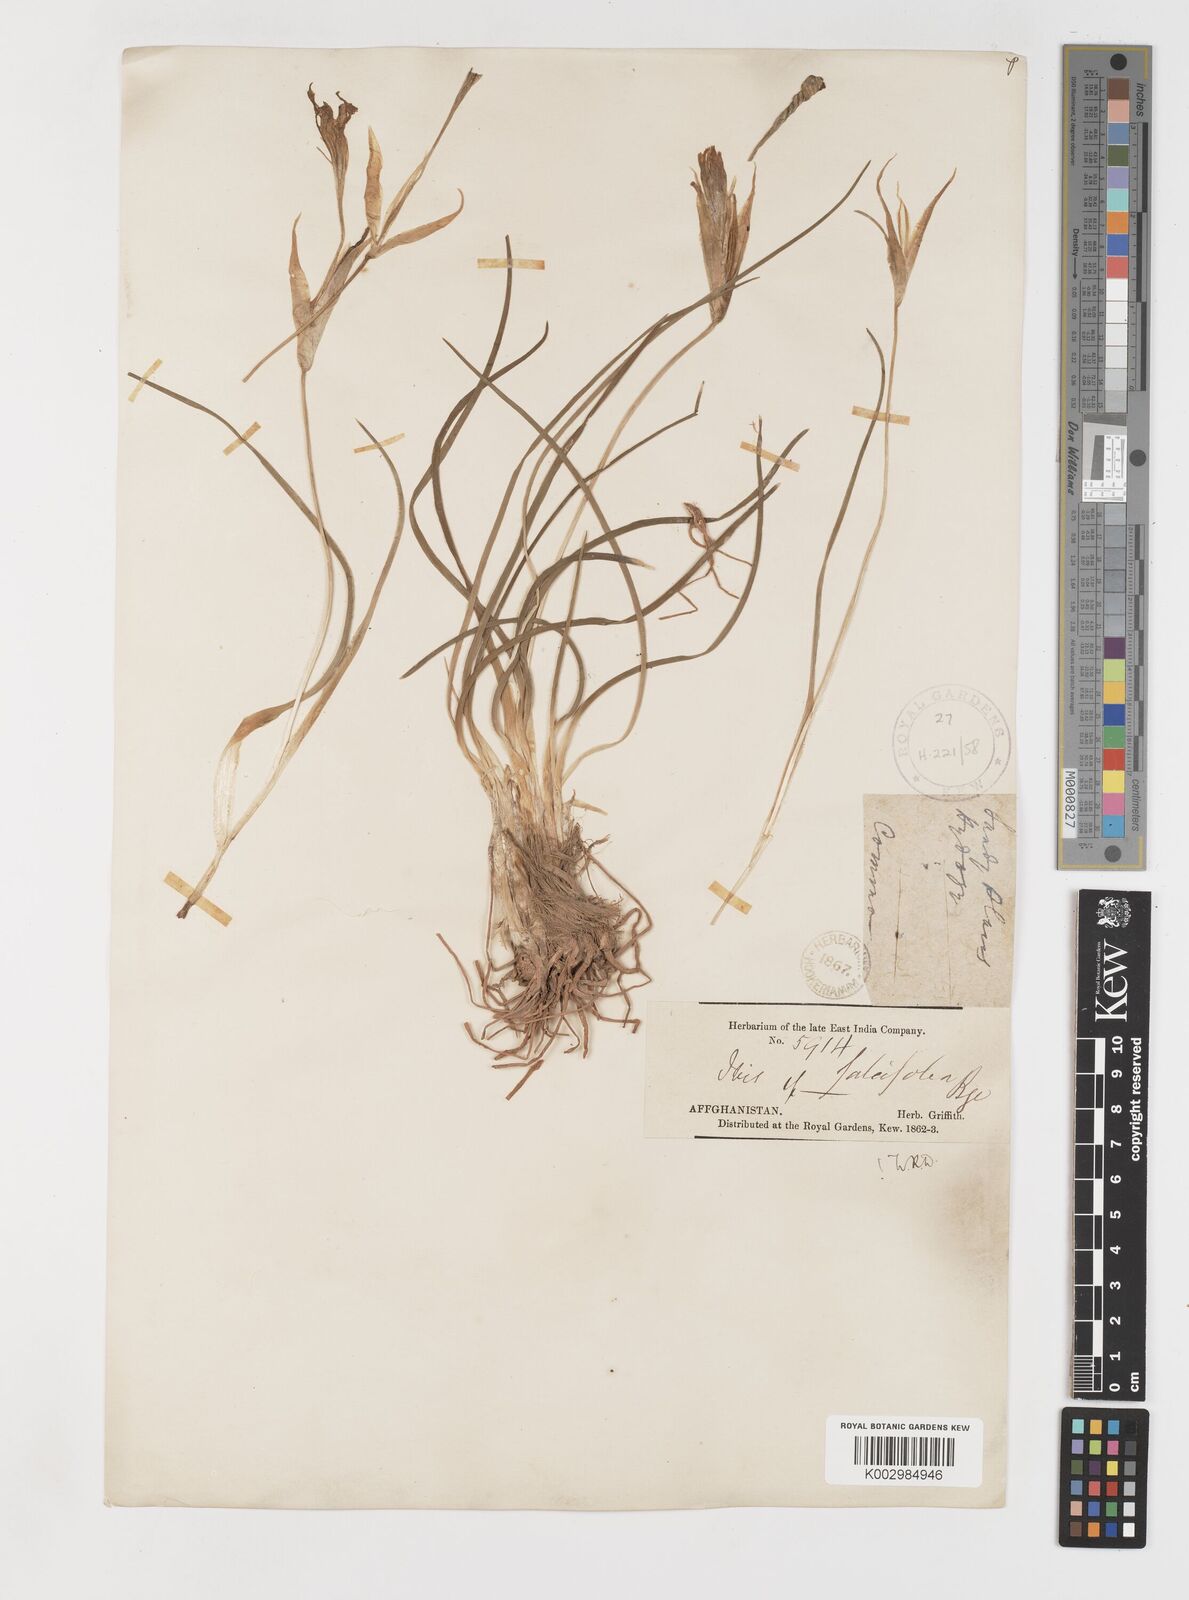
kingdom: Plantae
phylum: Tracheophyta
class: Liliopsida
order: Asparagales
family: Iridaceae
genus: Iris
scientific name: Iris longiscapa
